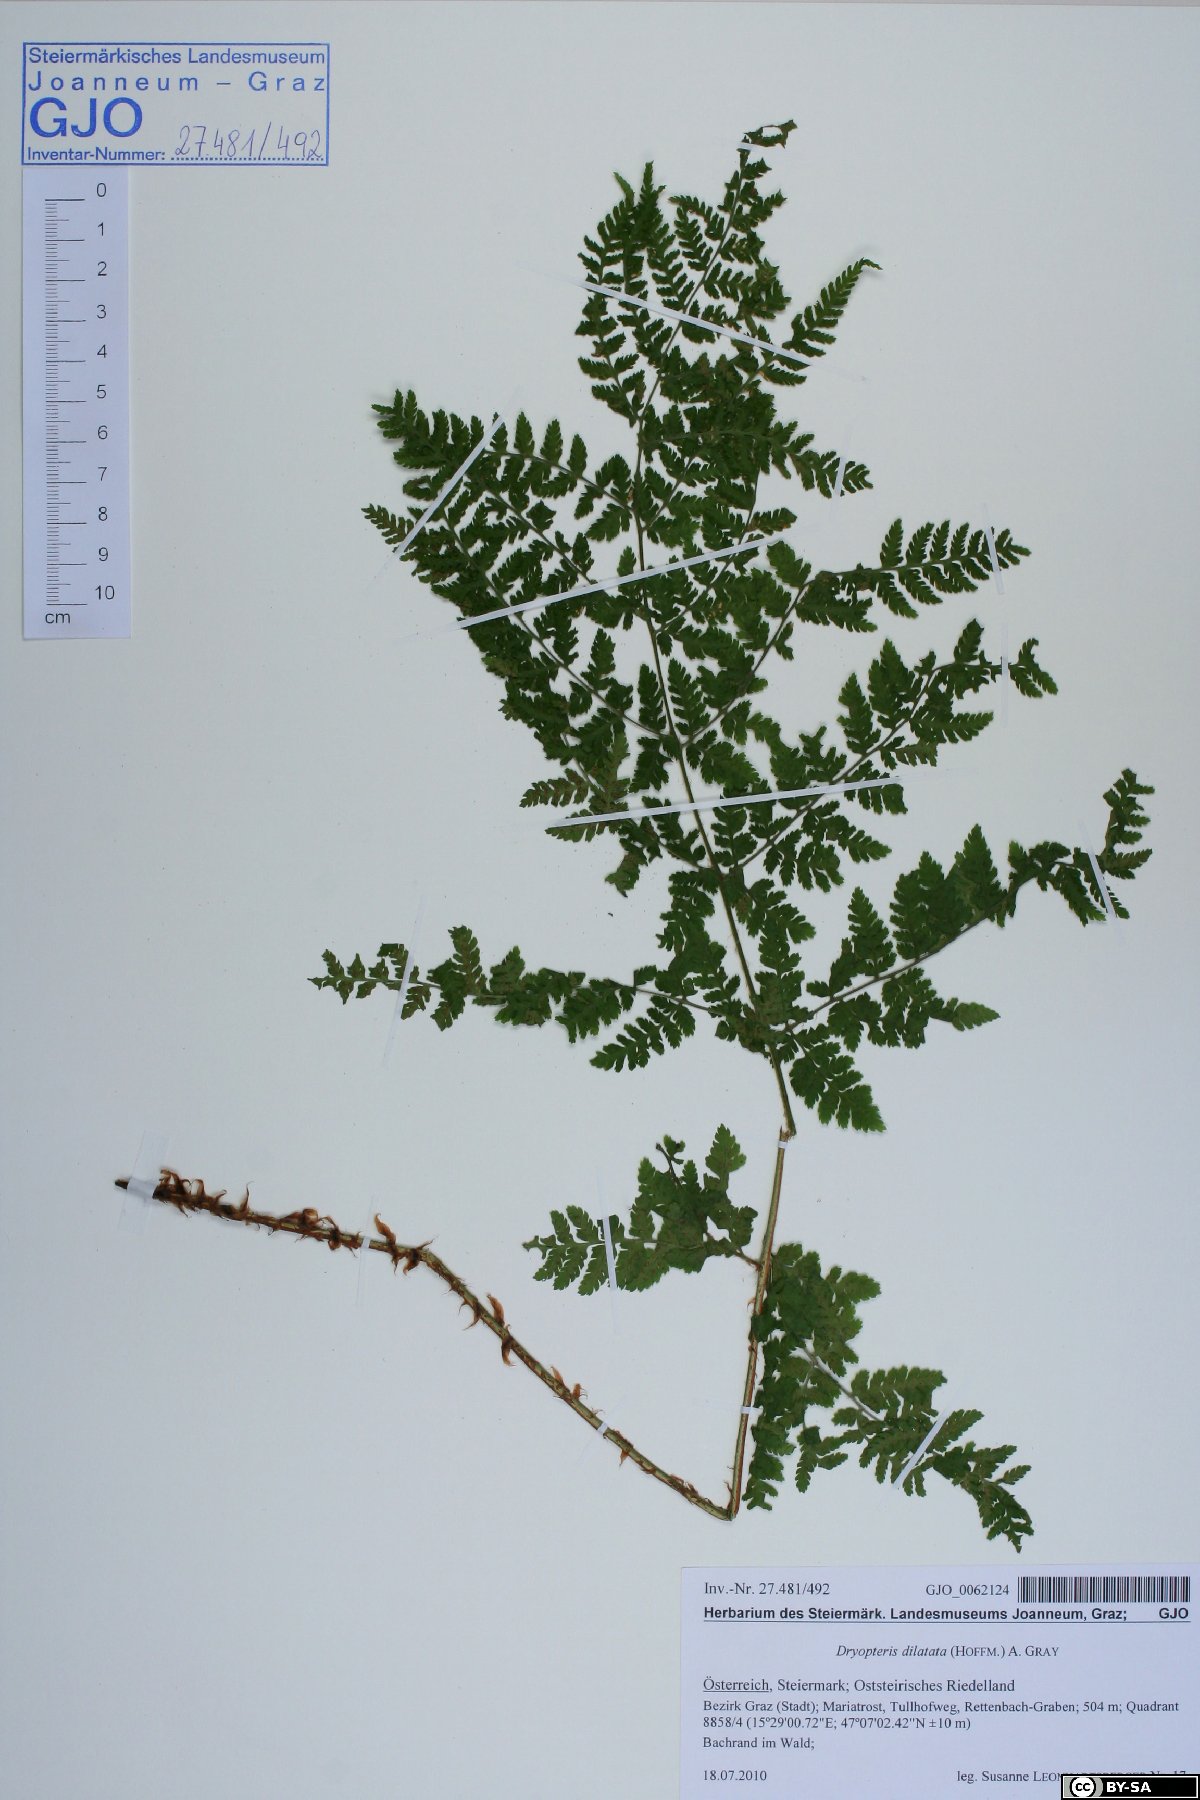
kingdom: Plantae
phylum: Tracheophyta
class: Polypodiopsida
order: Polypodiales
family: Dryopteridaceae
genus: Dryopteris
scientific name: Dryopteris dilatata
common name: Broad buckler-fern
